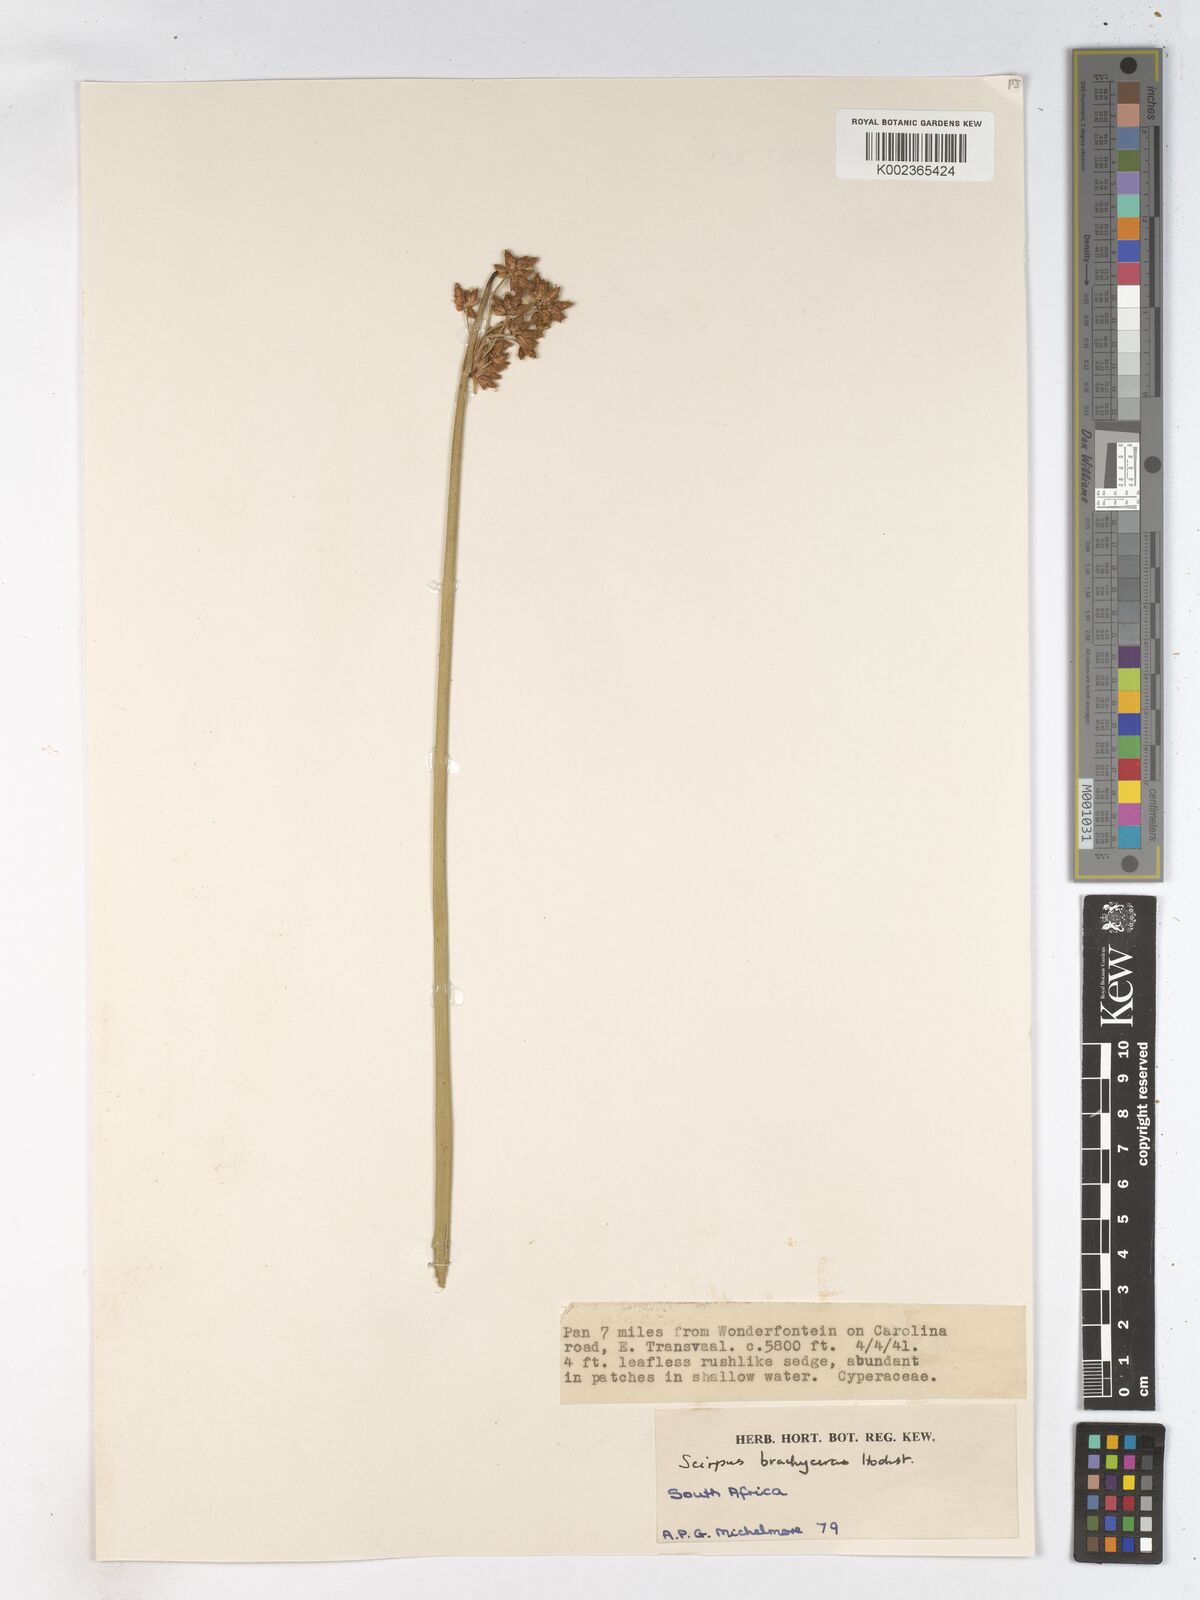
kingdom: Plantae
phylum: Tracheophyta
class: Liliopsida
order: Poales
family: Cyperaceae
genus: Schoenoplectiella
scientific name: Schoenoplectiella corymbosa
